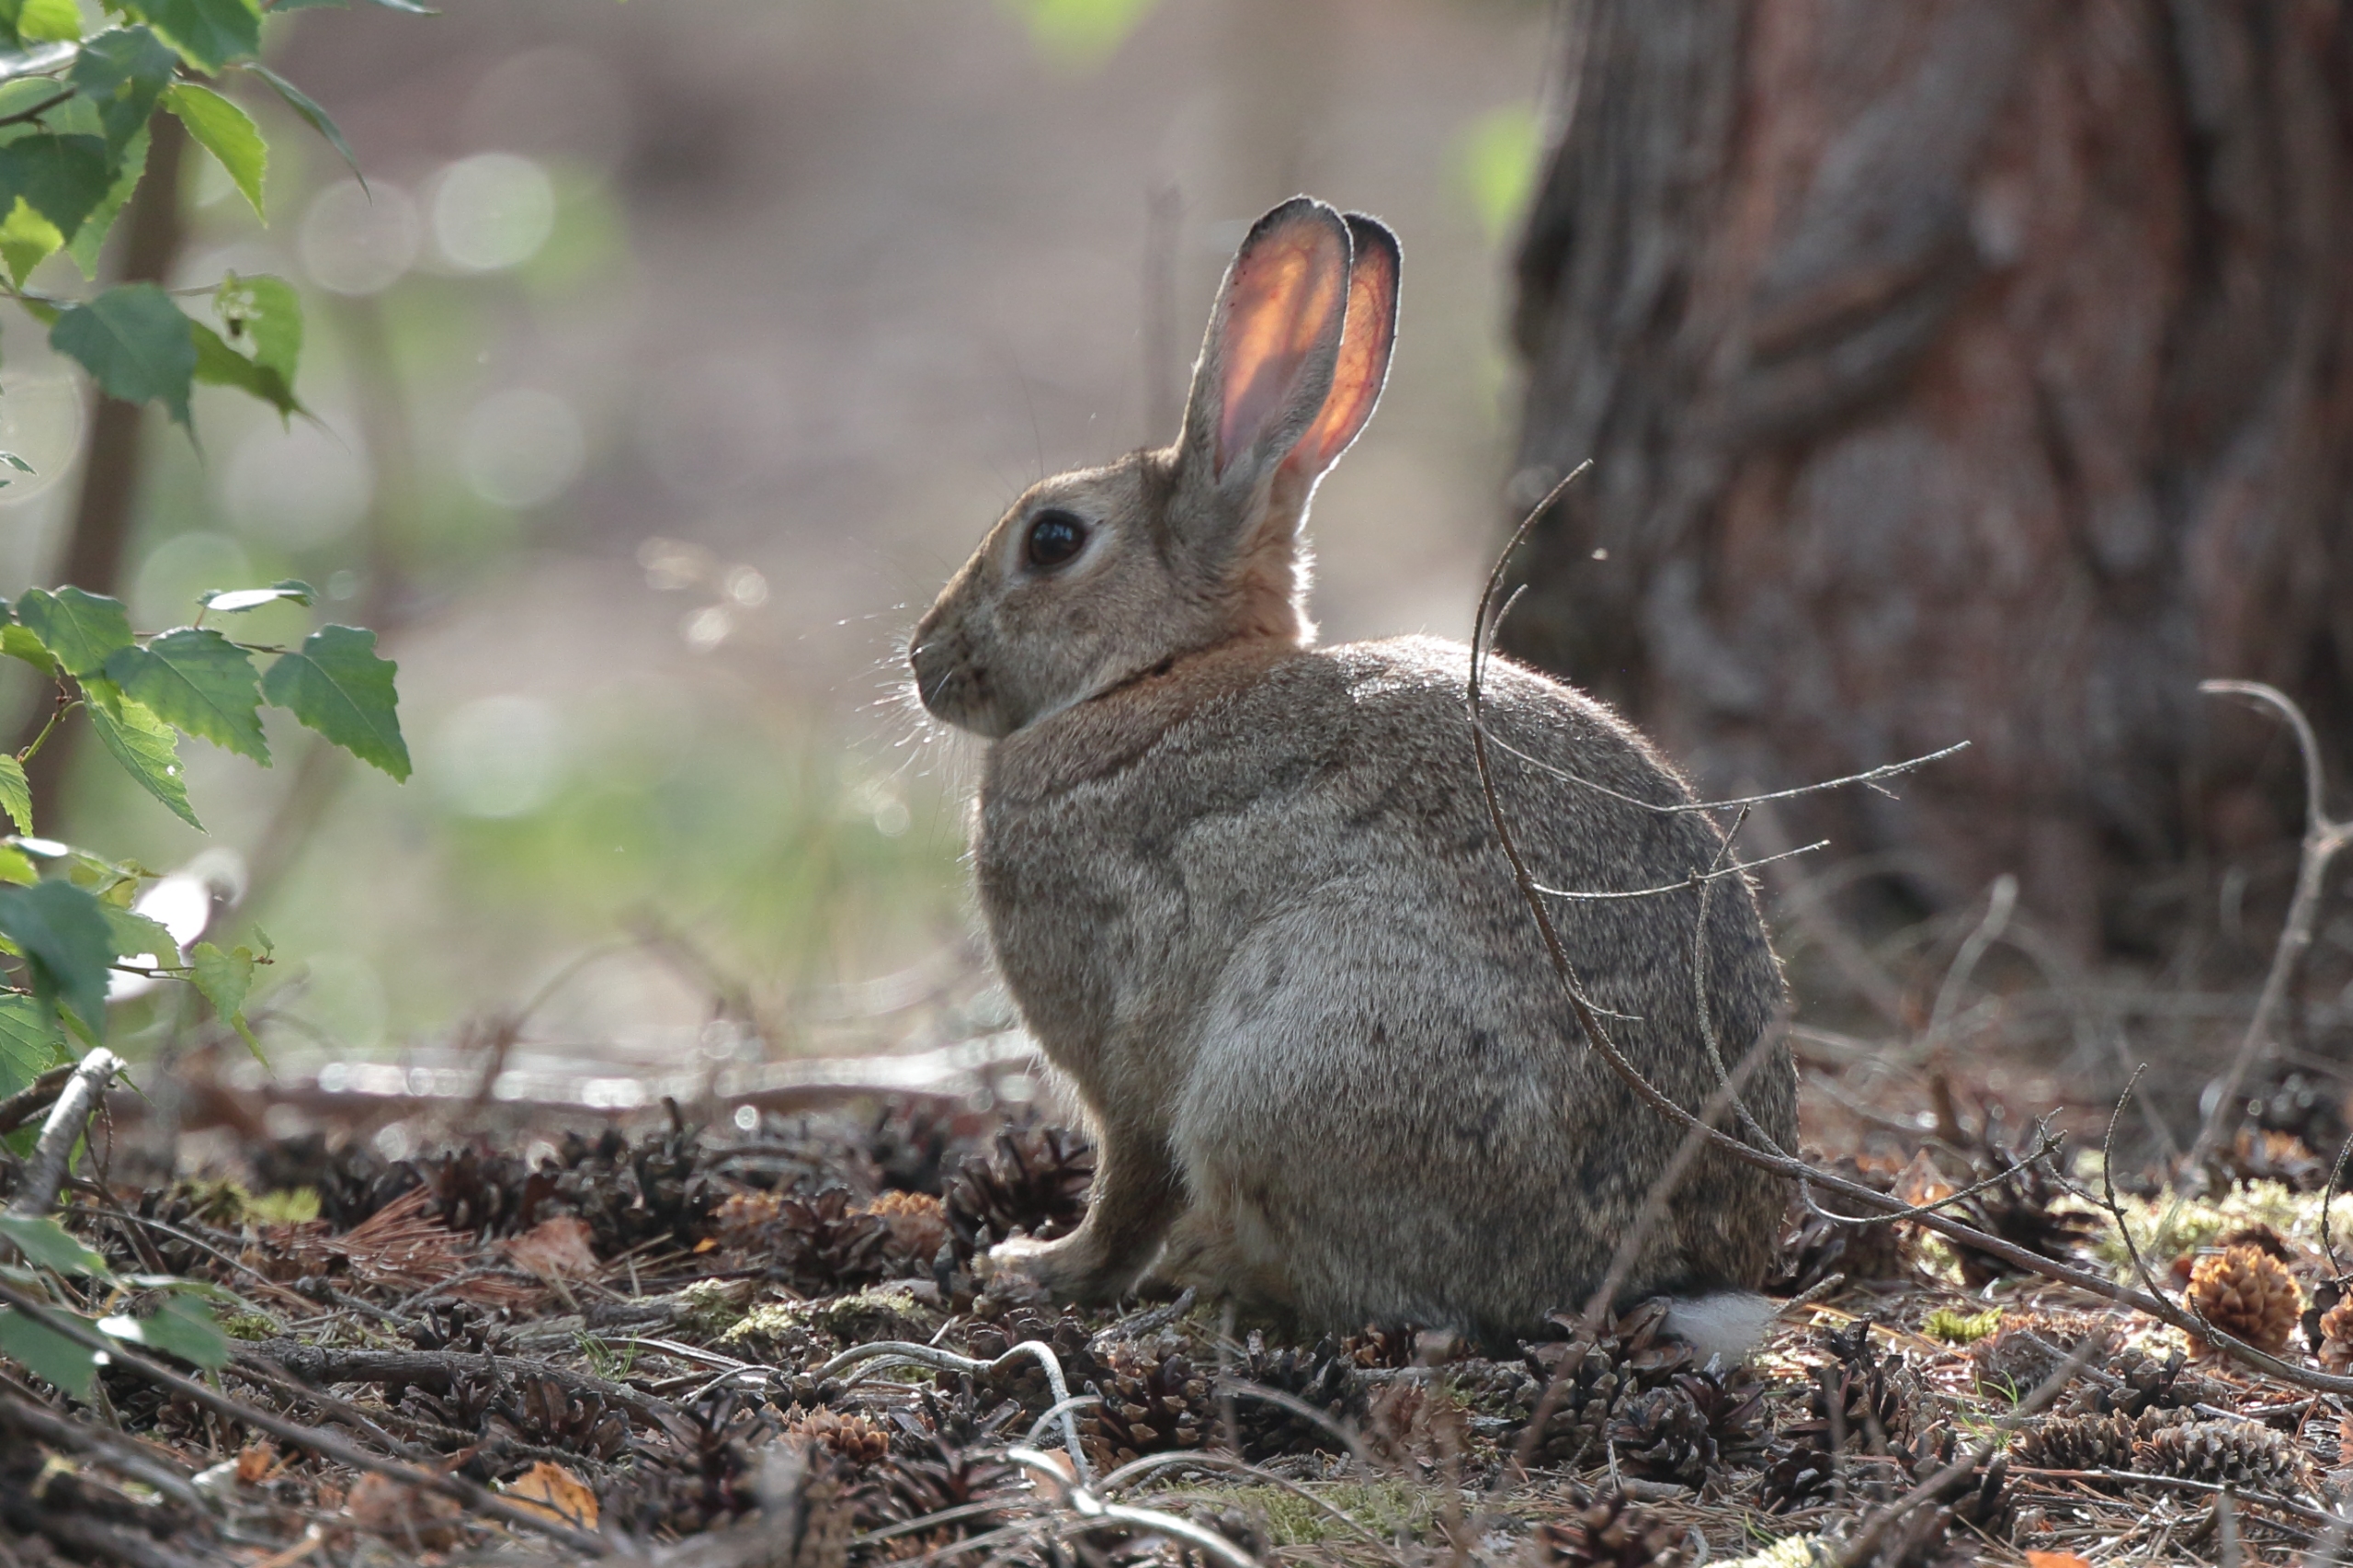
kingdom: Animalia
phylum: Chordata
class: Mammalia
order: Lagomorpha
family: Leporidae
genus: Oryctolagus
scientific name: Oryctolagus cuniculus
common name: Vildkanin
